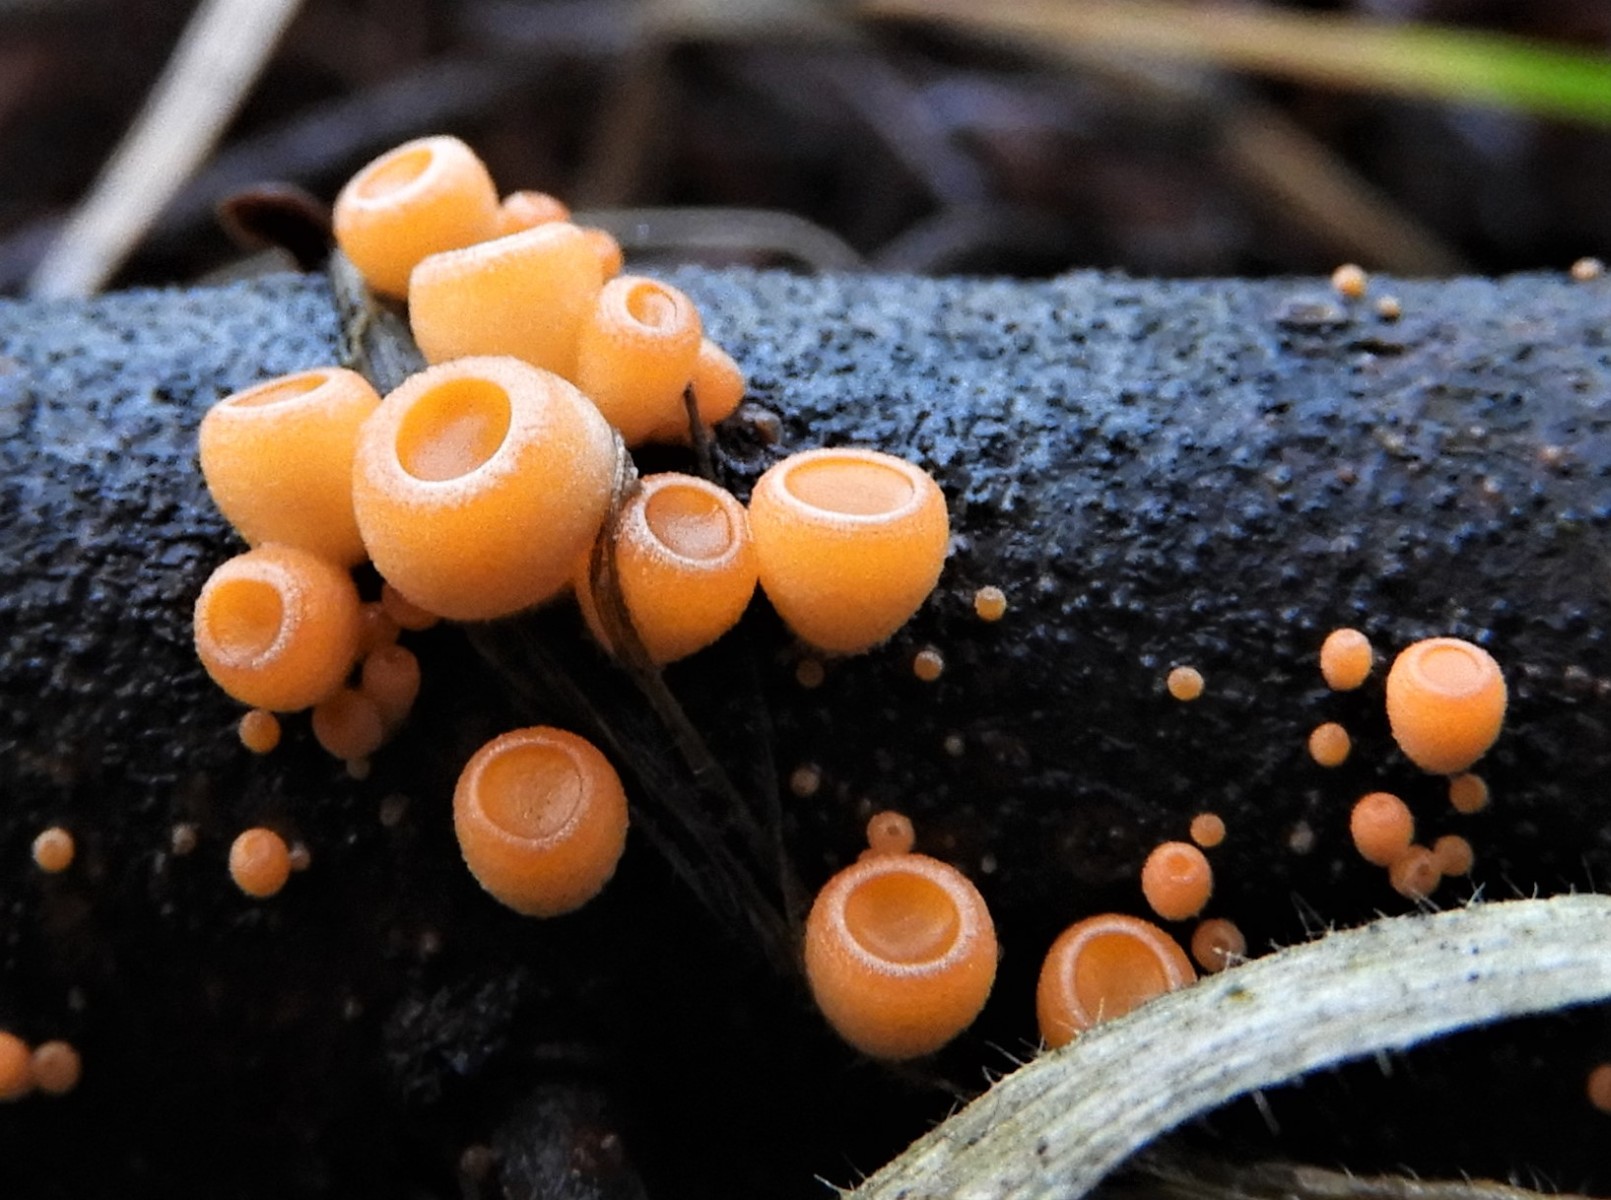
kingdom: Fungi
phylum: Ascomycota
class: Pezizomycetes
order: Pezizales
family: Sarcoscyphaceae
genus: Pithya
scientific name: Pithya vulgaris
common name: stor dukatbæger
